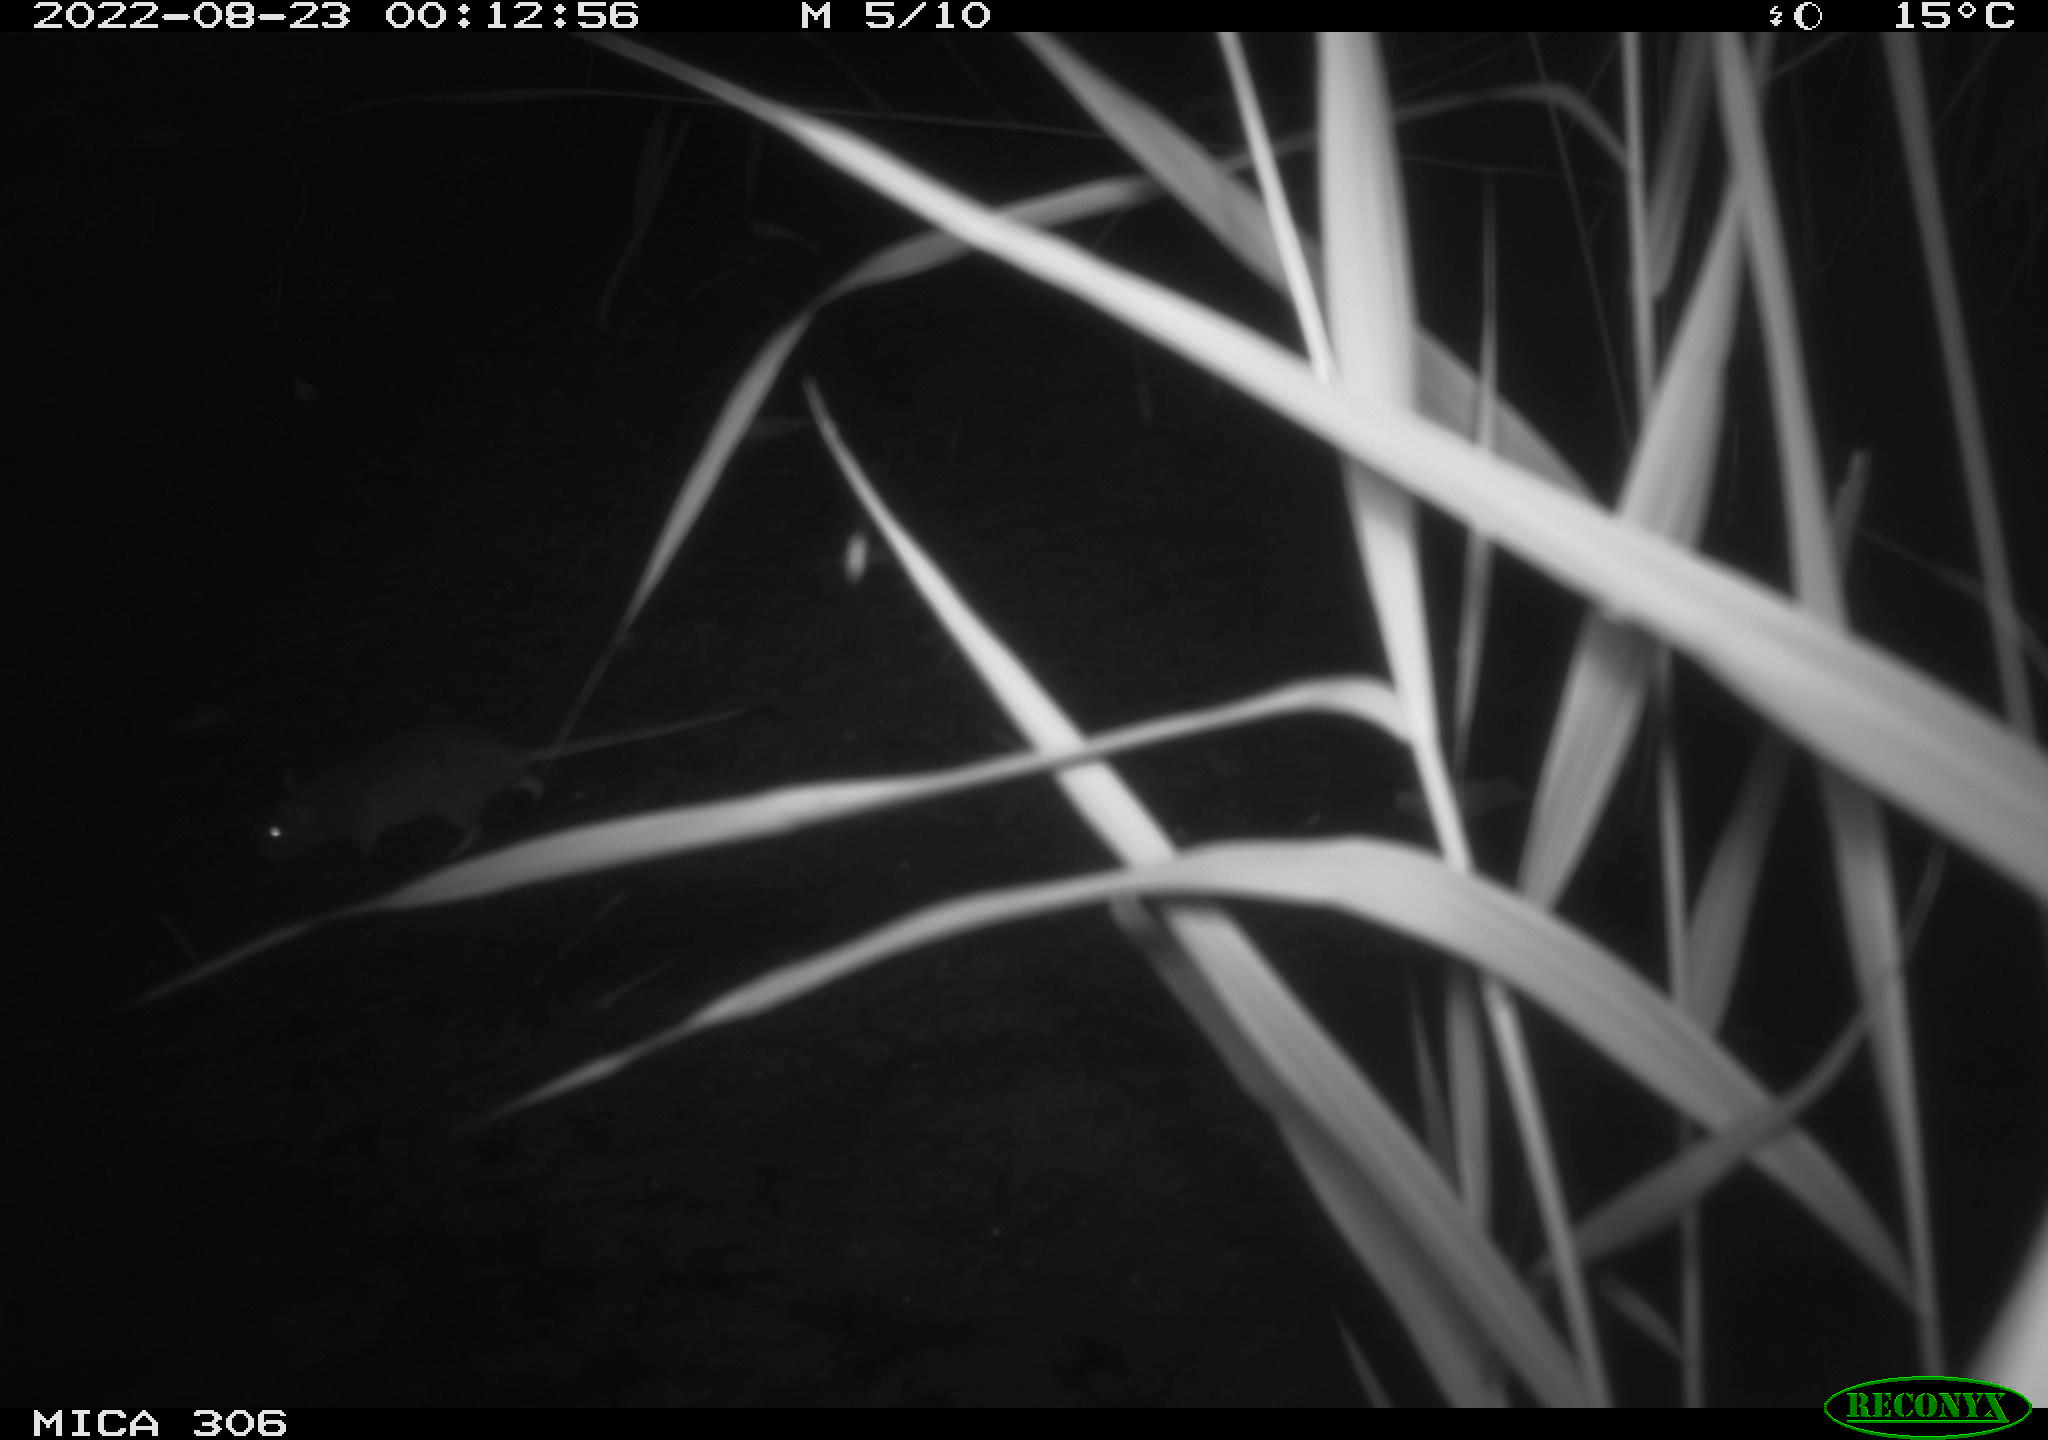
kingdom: Animalia
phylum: Chordata
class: Mammalia
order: Rodentia
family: Muridae
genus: Rattus
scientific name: Rattus norvegicus
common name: Brown rat
